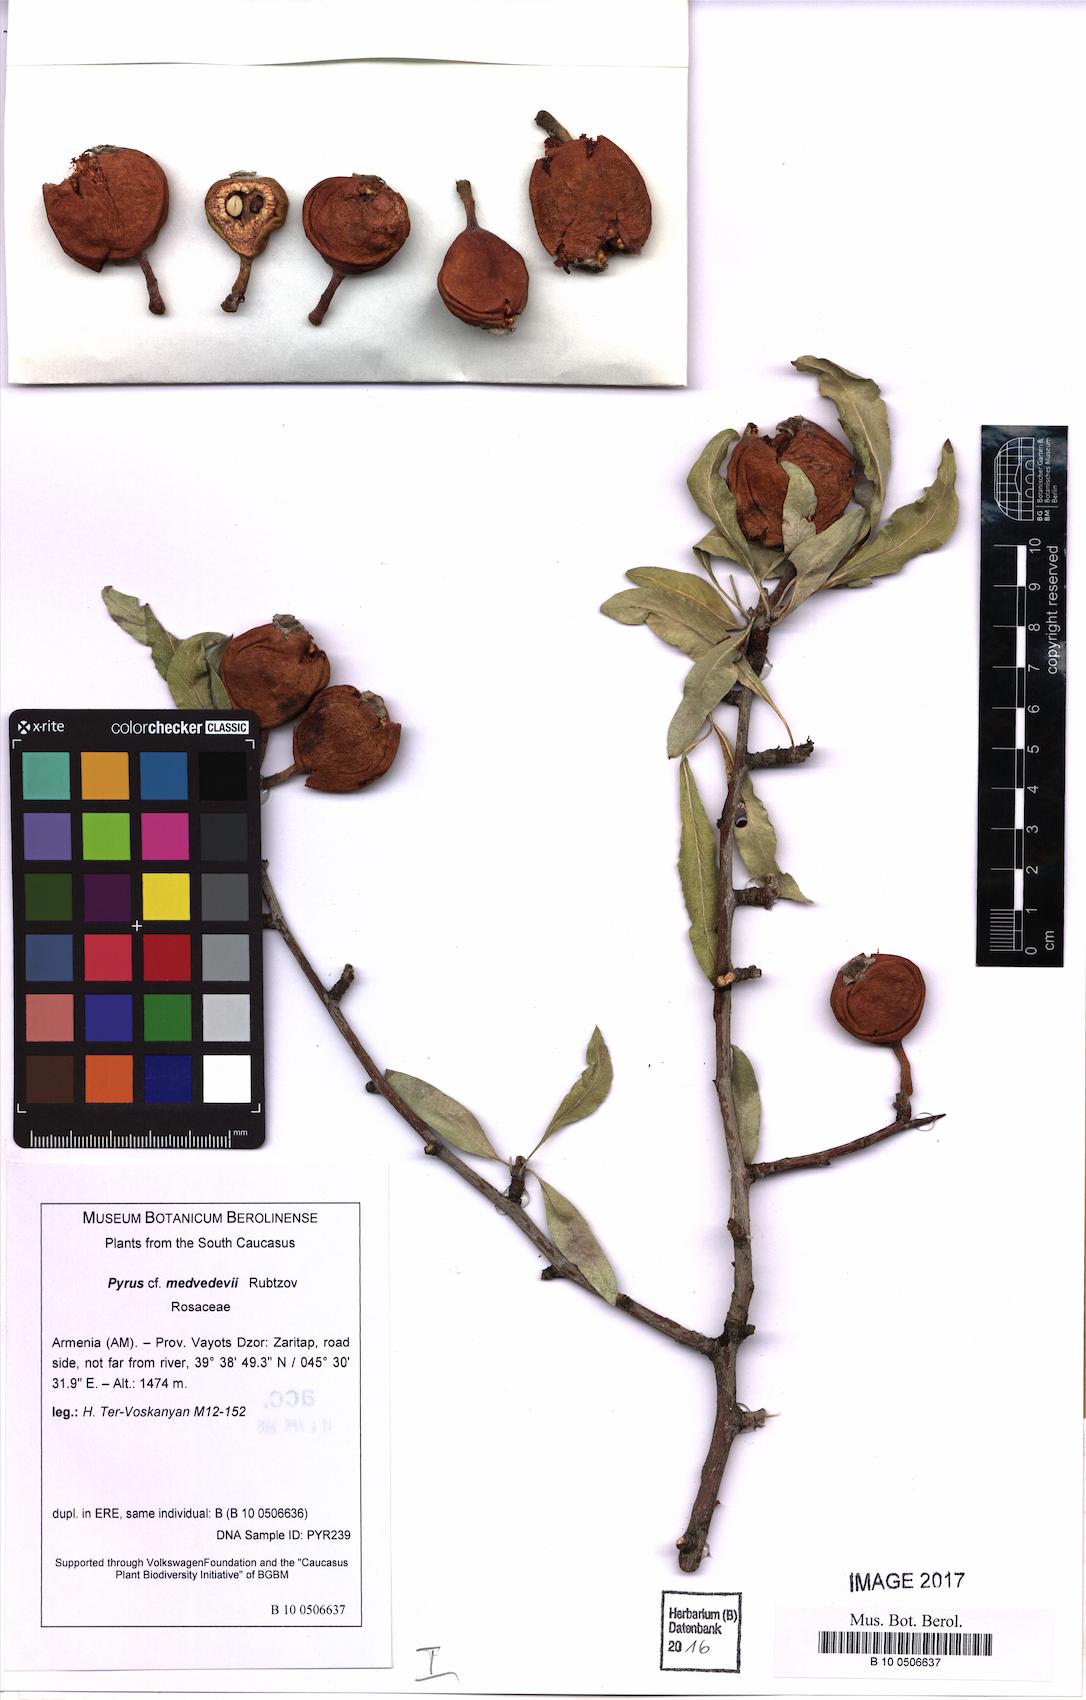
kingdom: Plantae
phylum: Tracheophyta
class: Magnoliopsida
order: Rosales
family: Rosaceae
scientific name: Rosaceae
